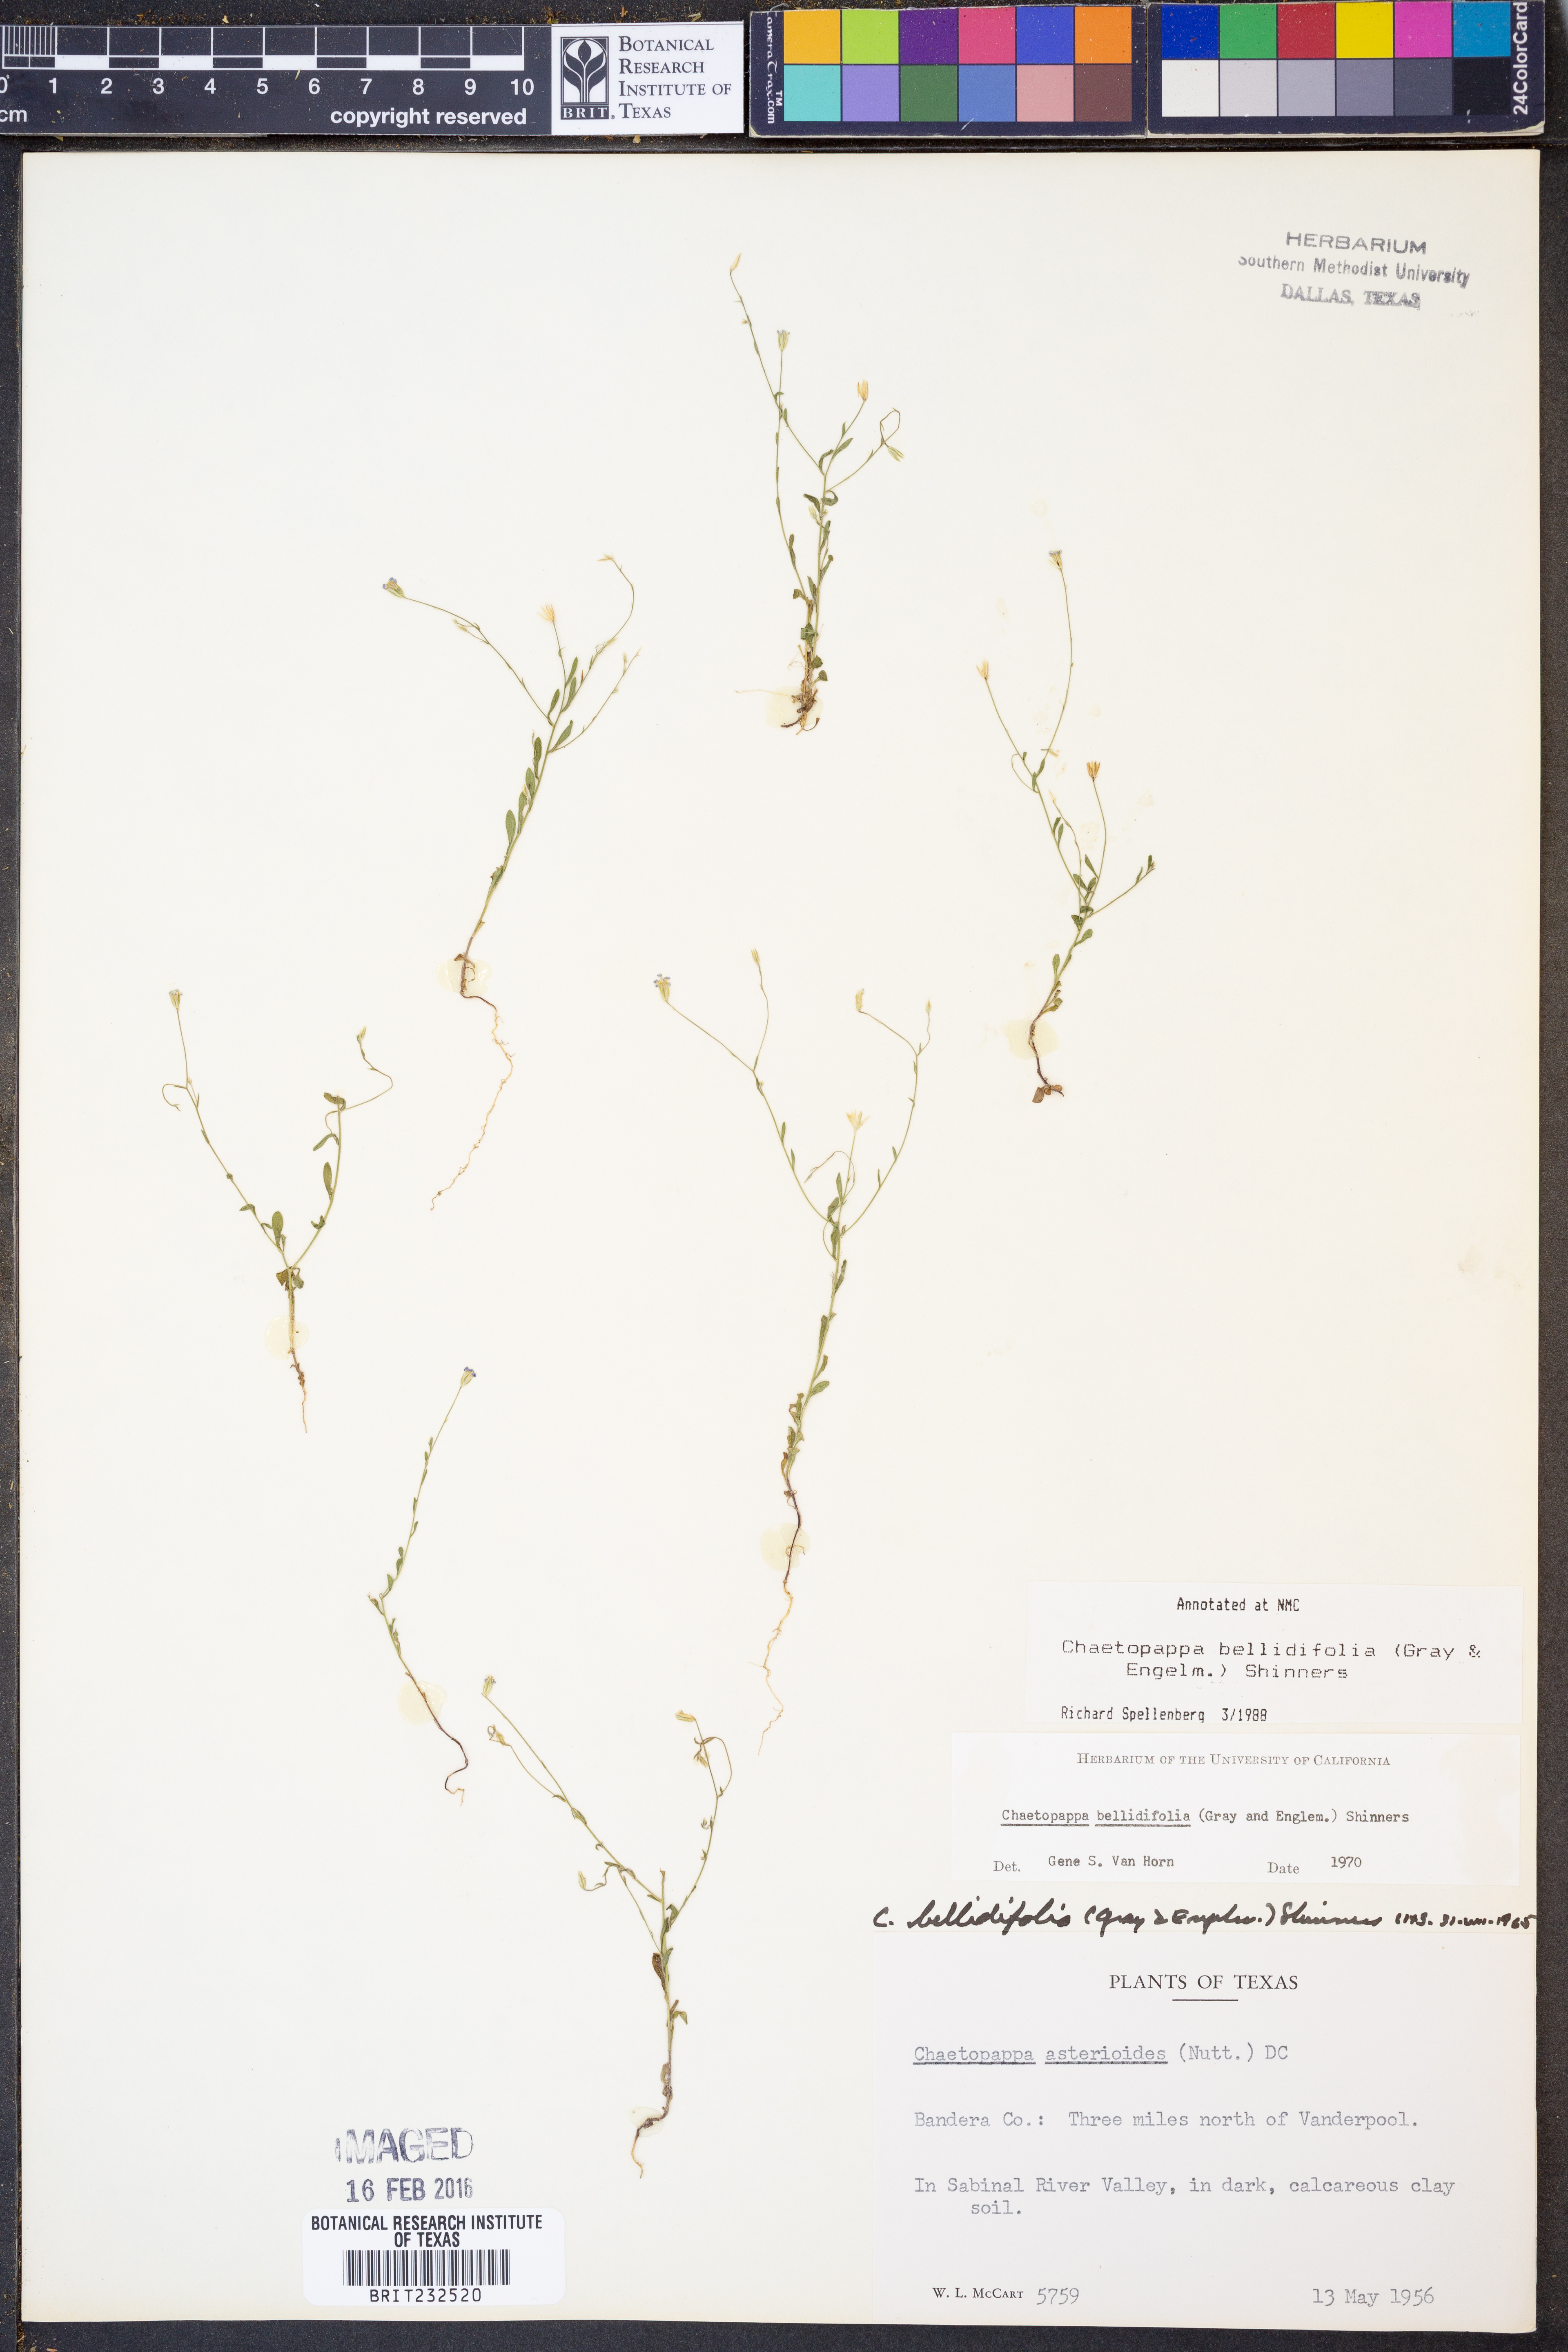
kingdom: Plantae
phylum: Tracheophyta
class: Magnoliopsida
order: Asterales
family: Asteraceae
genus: Chaetopappa
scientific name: Chaetopappa bellidifolia
